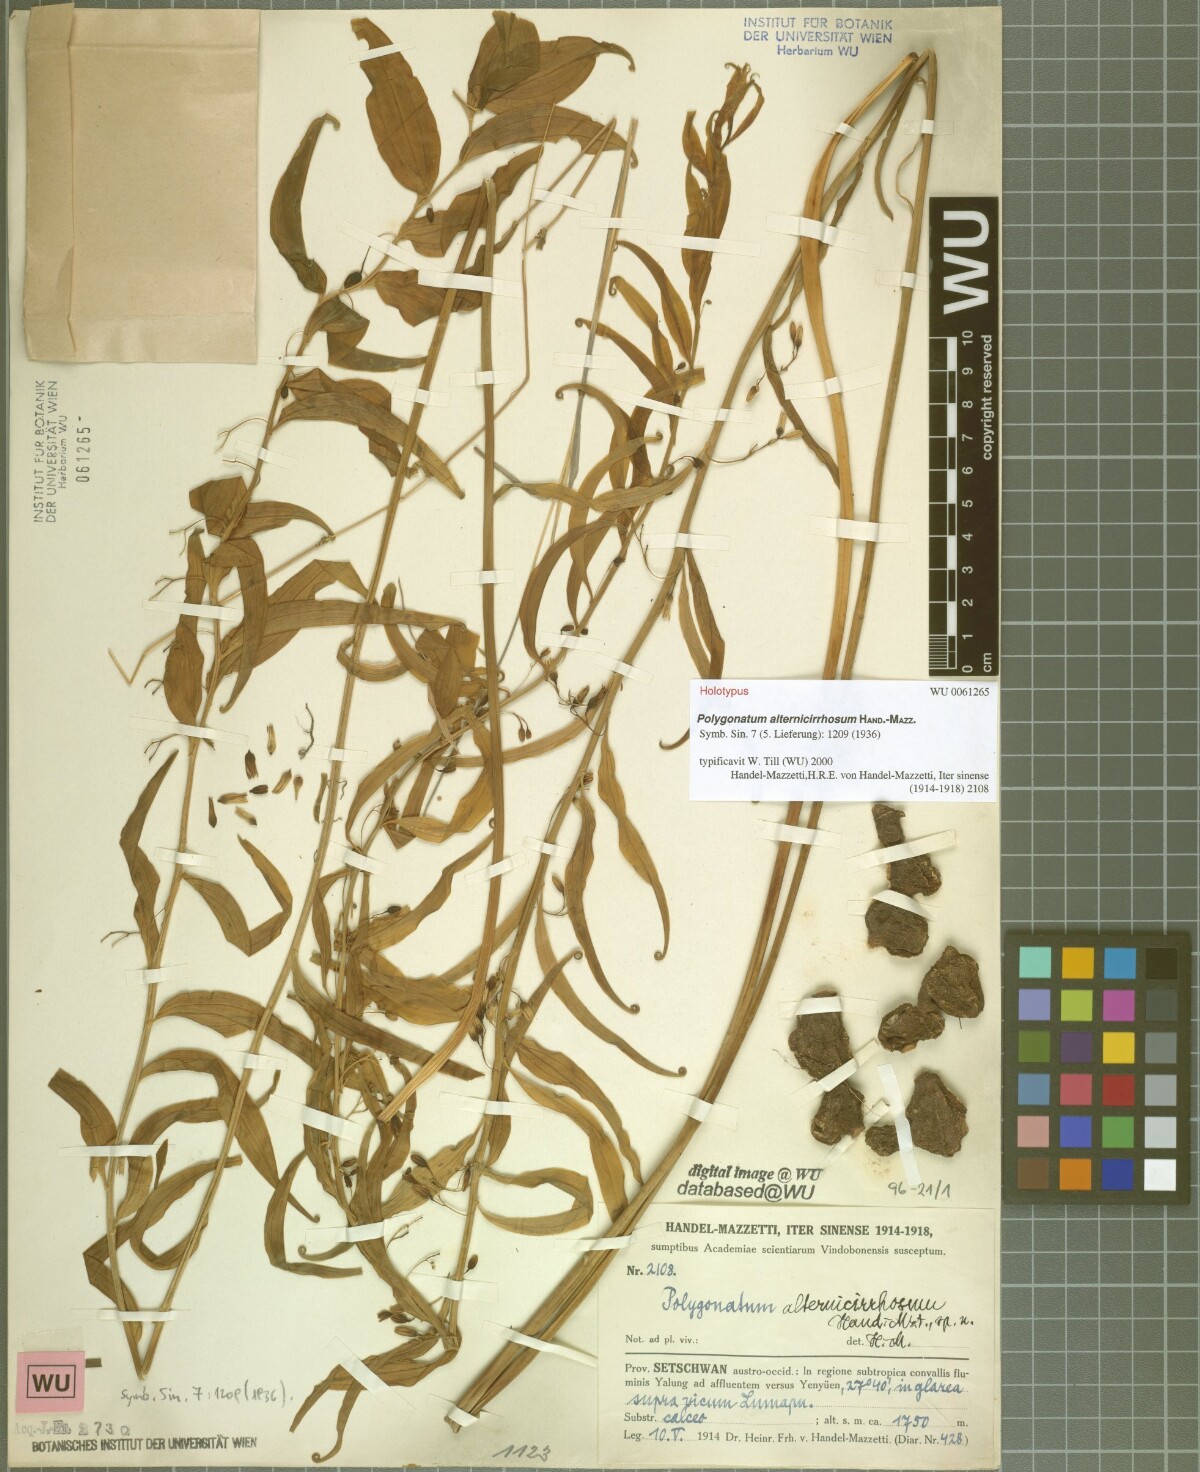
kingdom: Plantae
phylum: Tracheophyta
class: Liliopsida
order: Asparagales
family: Asparagaceae
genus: Heteropolygonatum
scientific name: Heteropolygonatum alternicirrhosum
